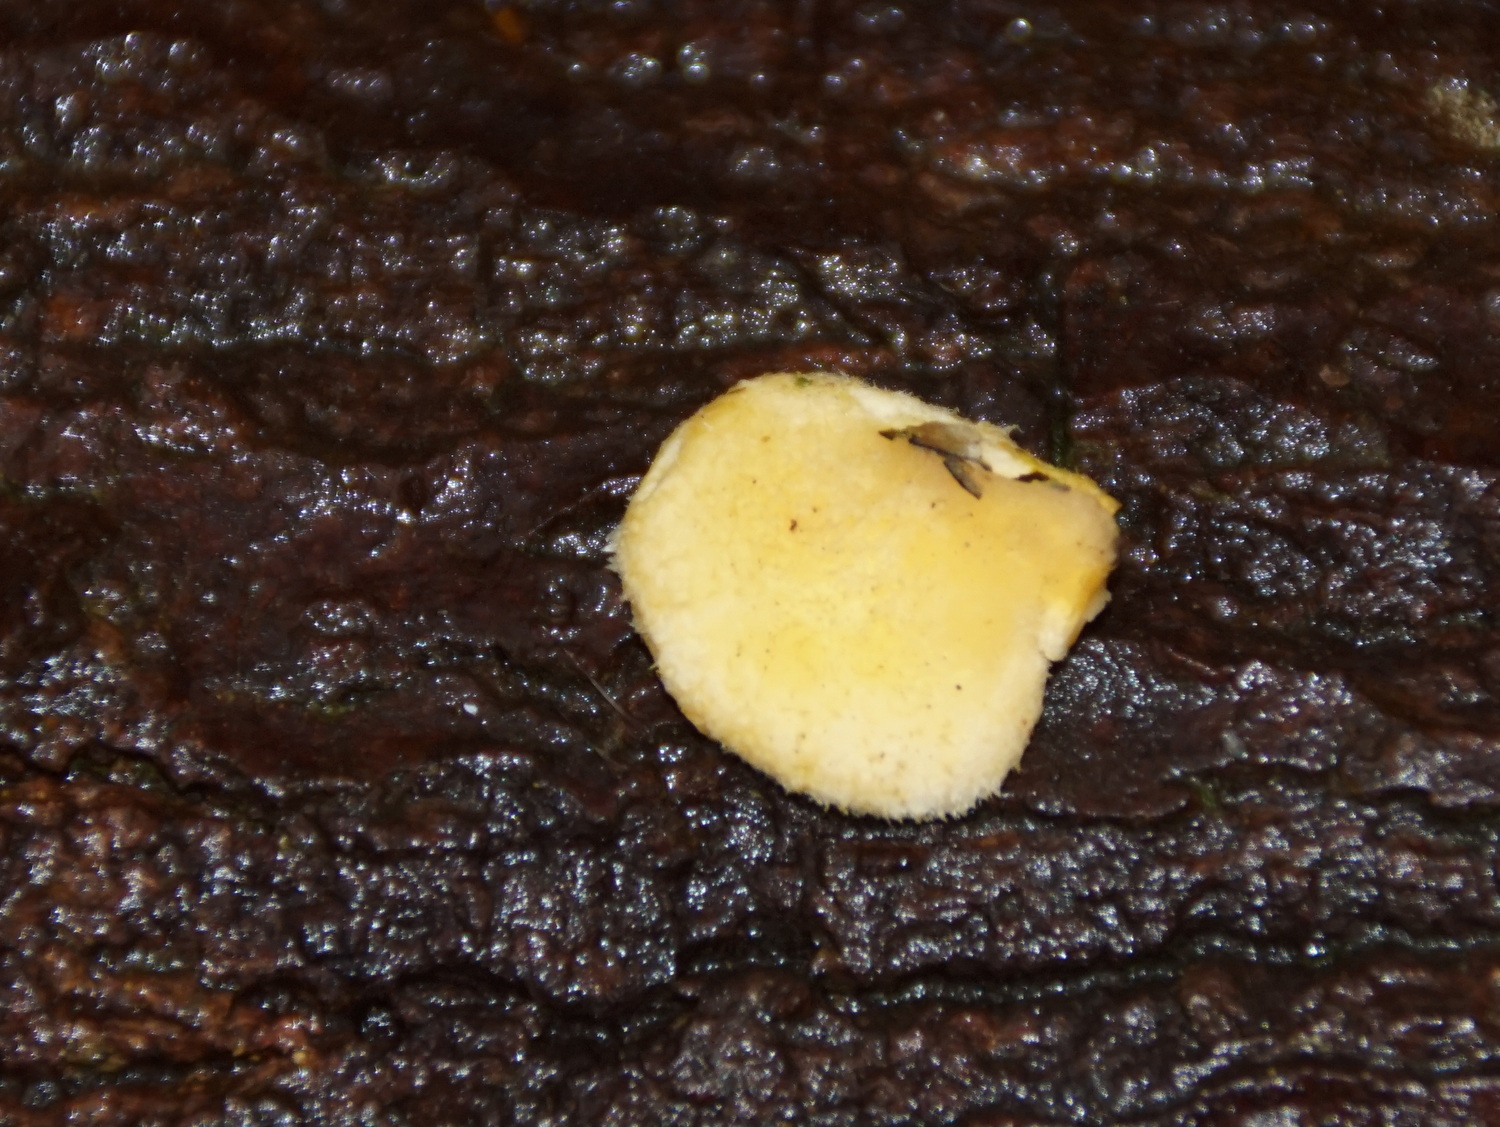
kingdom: Fungi
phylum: Basidiomycota
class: Agaricomycetes
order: Agaricales
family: Phyllotopsidaceae
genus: Phyllotopsis
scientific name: Phyllotopsis nidulans
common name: okkerblad
